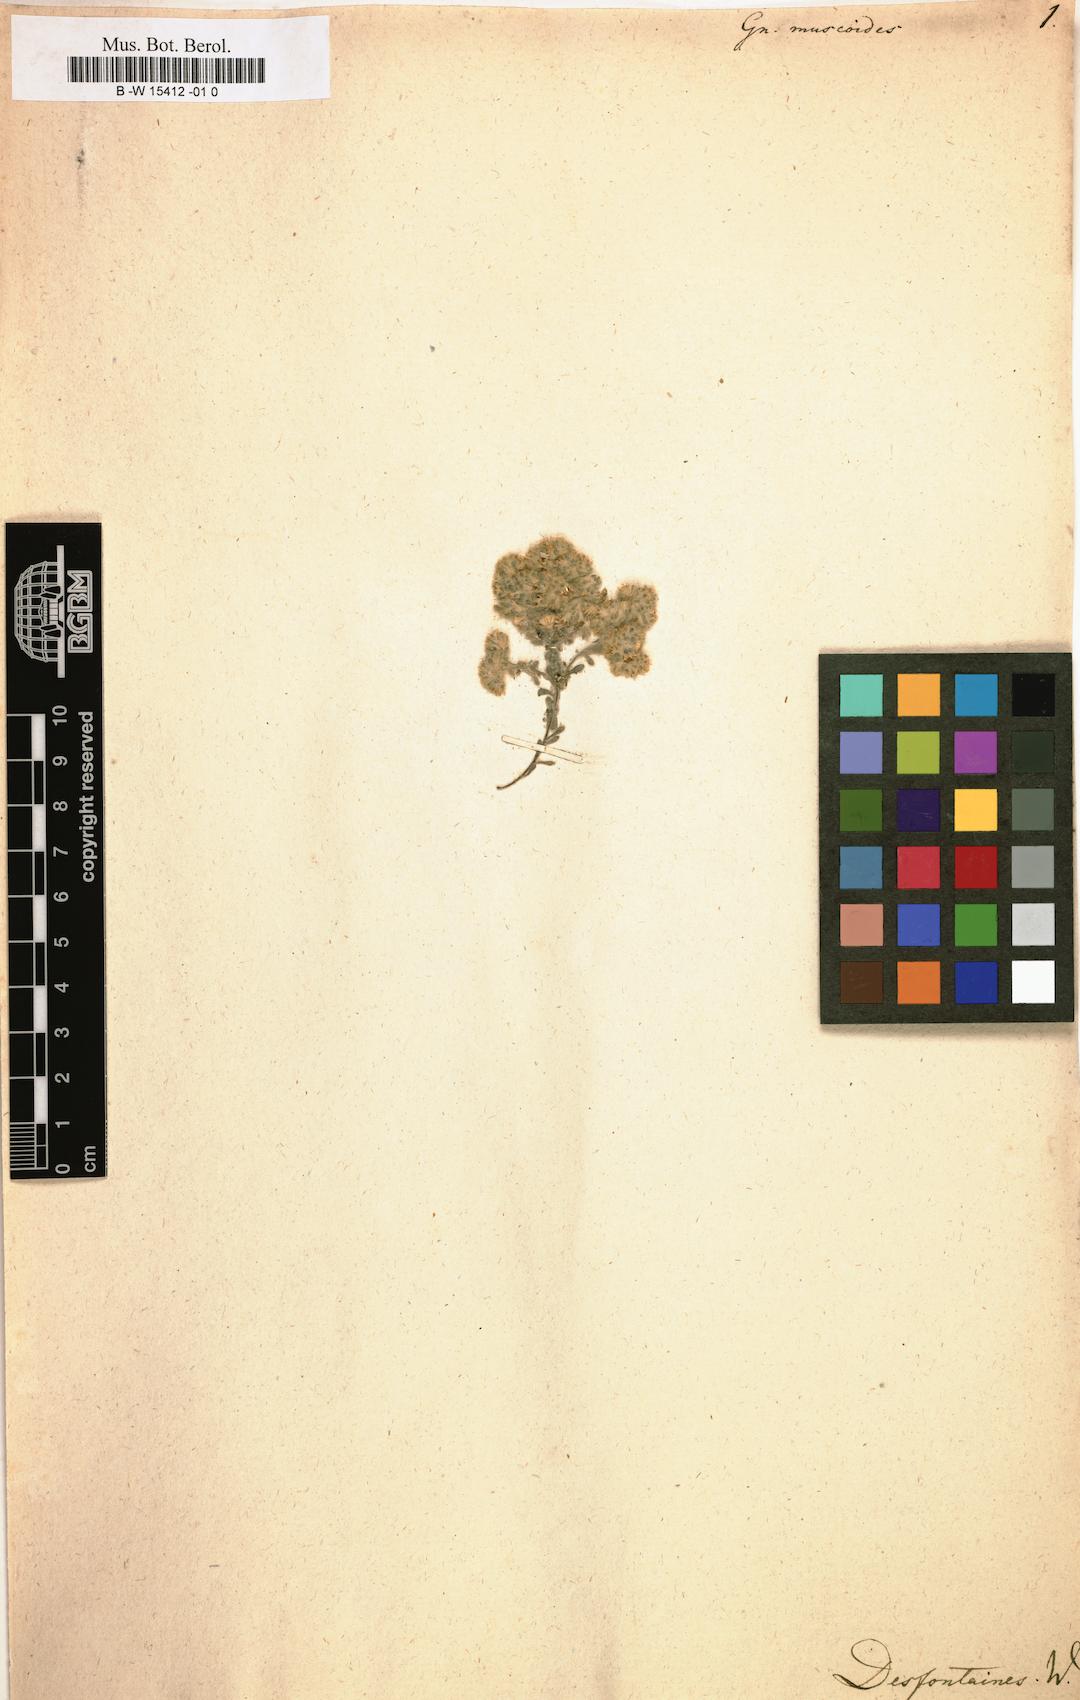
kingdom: Plantae
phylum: Tracheophyta
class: Magnoliopsida
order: Asterales
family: Asteraceae
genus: Lasiopogon
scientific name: Lasiopogon muscoides
